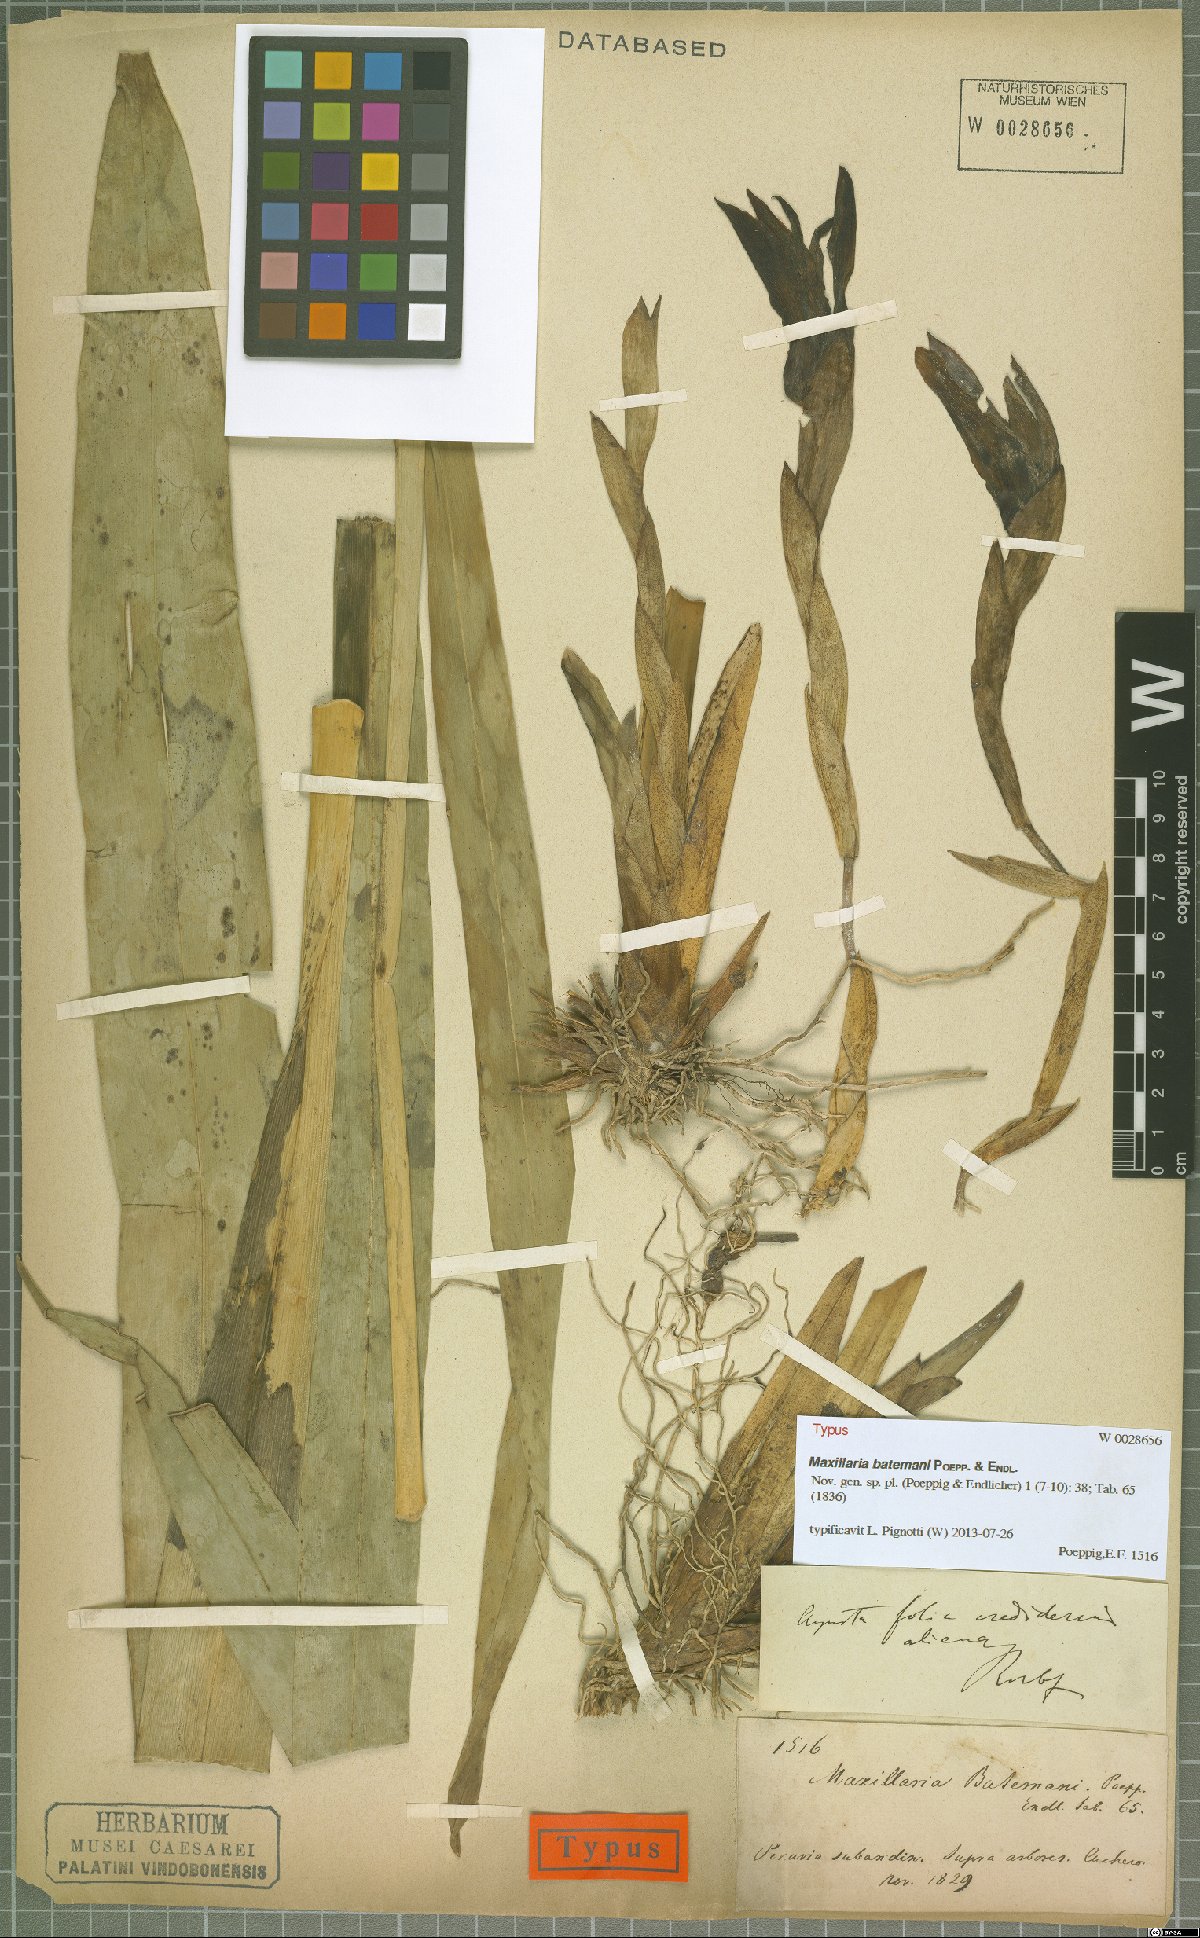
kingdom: Plantae
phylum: Tracheophyta
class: Liliopsida
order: Asparagales
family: Orchidaceae
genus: Maxillaria
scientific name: Maxillaria batemanii
